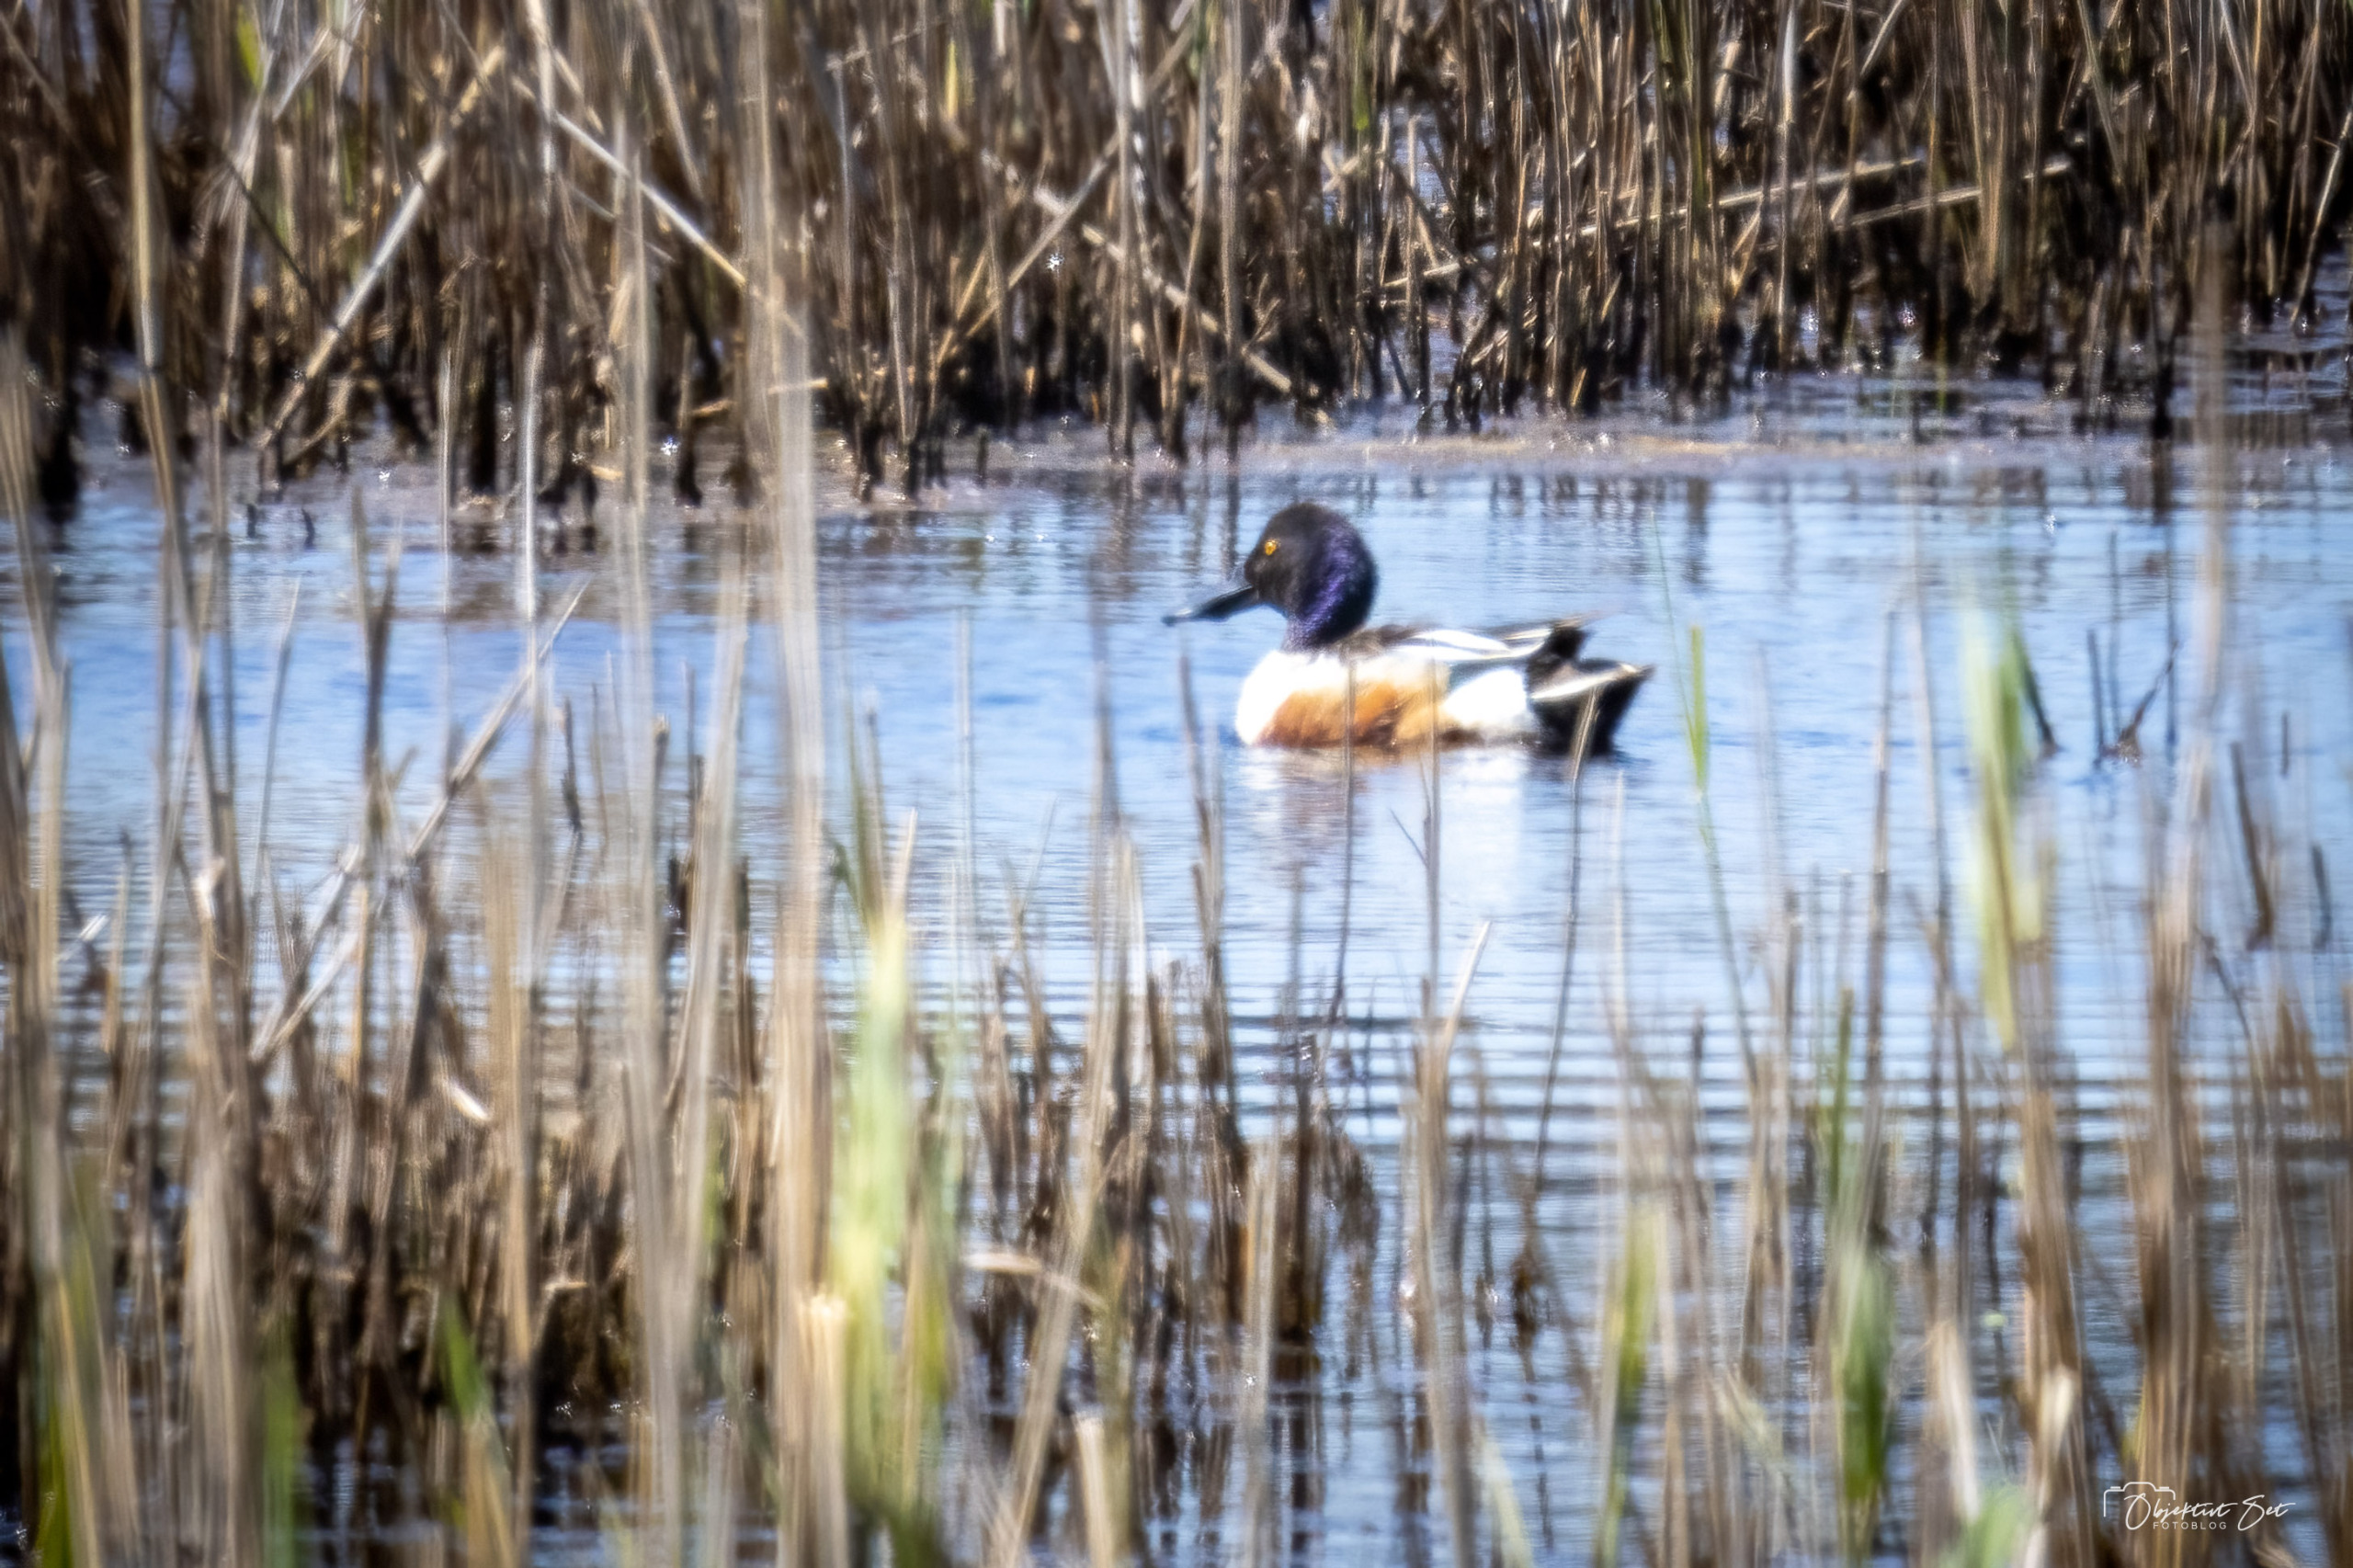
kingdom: Animalia
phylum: Chordata
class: Aves
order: Anseriformes
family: Anatidae
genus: Spatula
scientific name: Spatula clypeata
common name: Skeand
